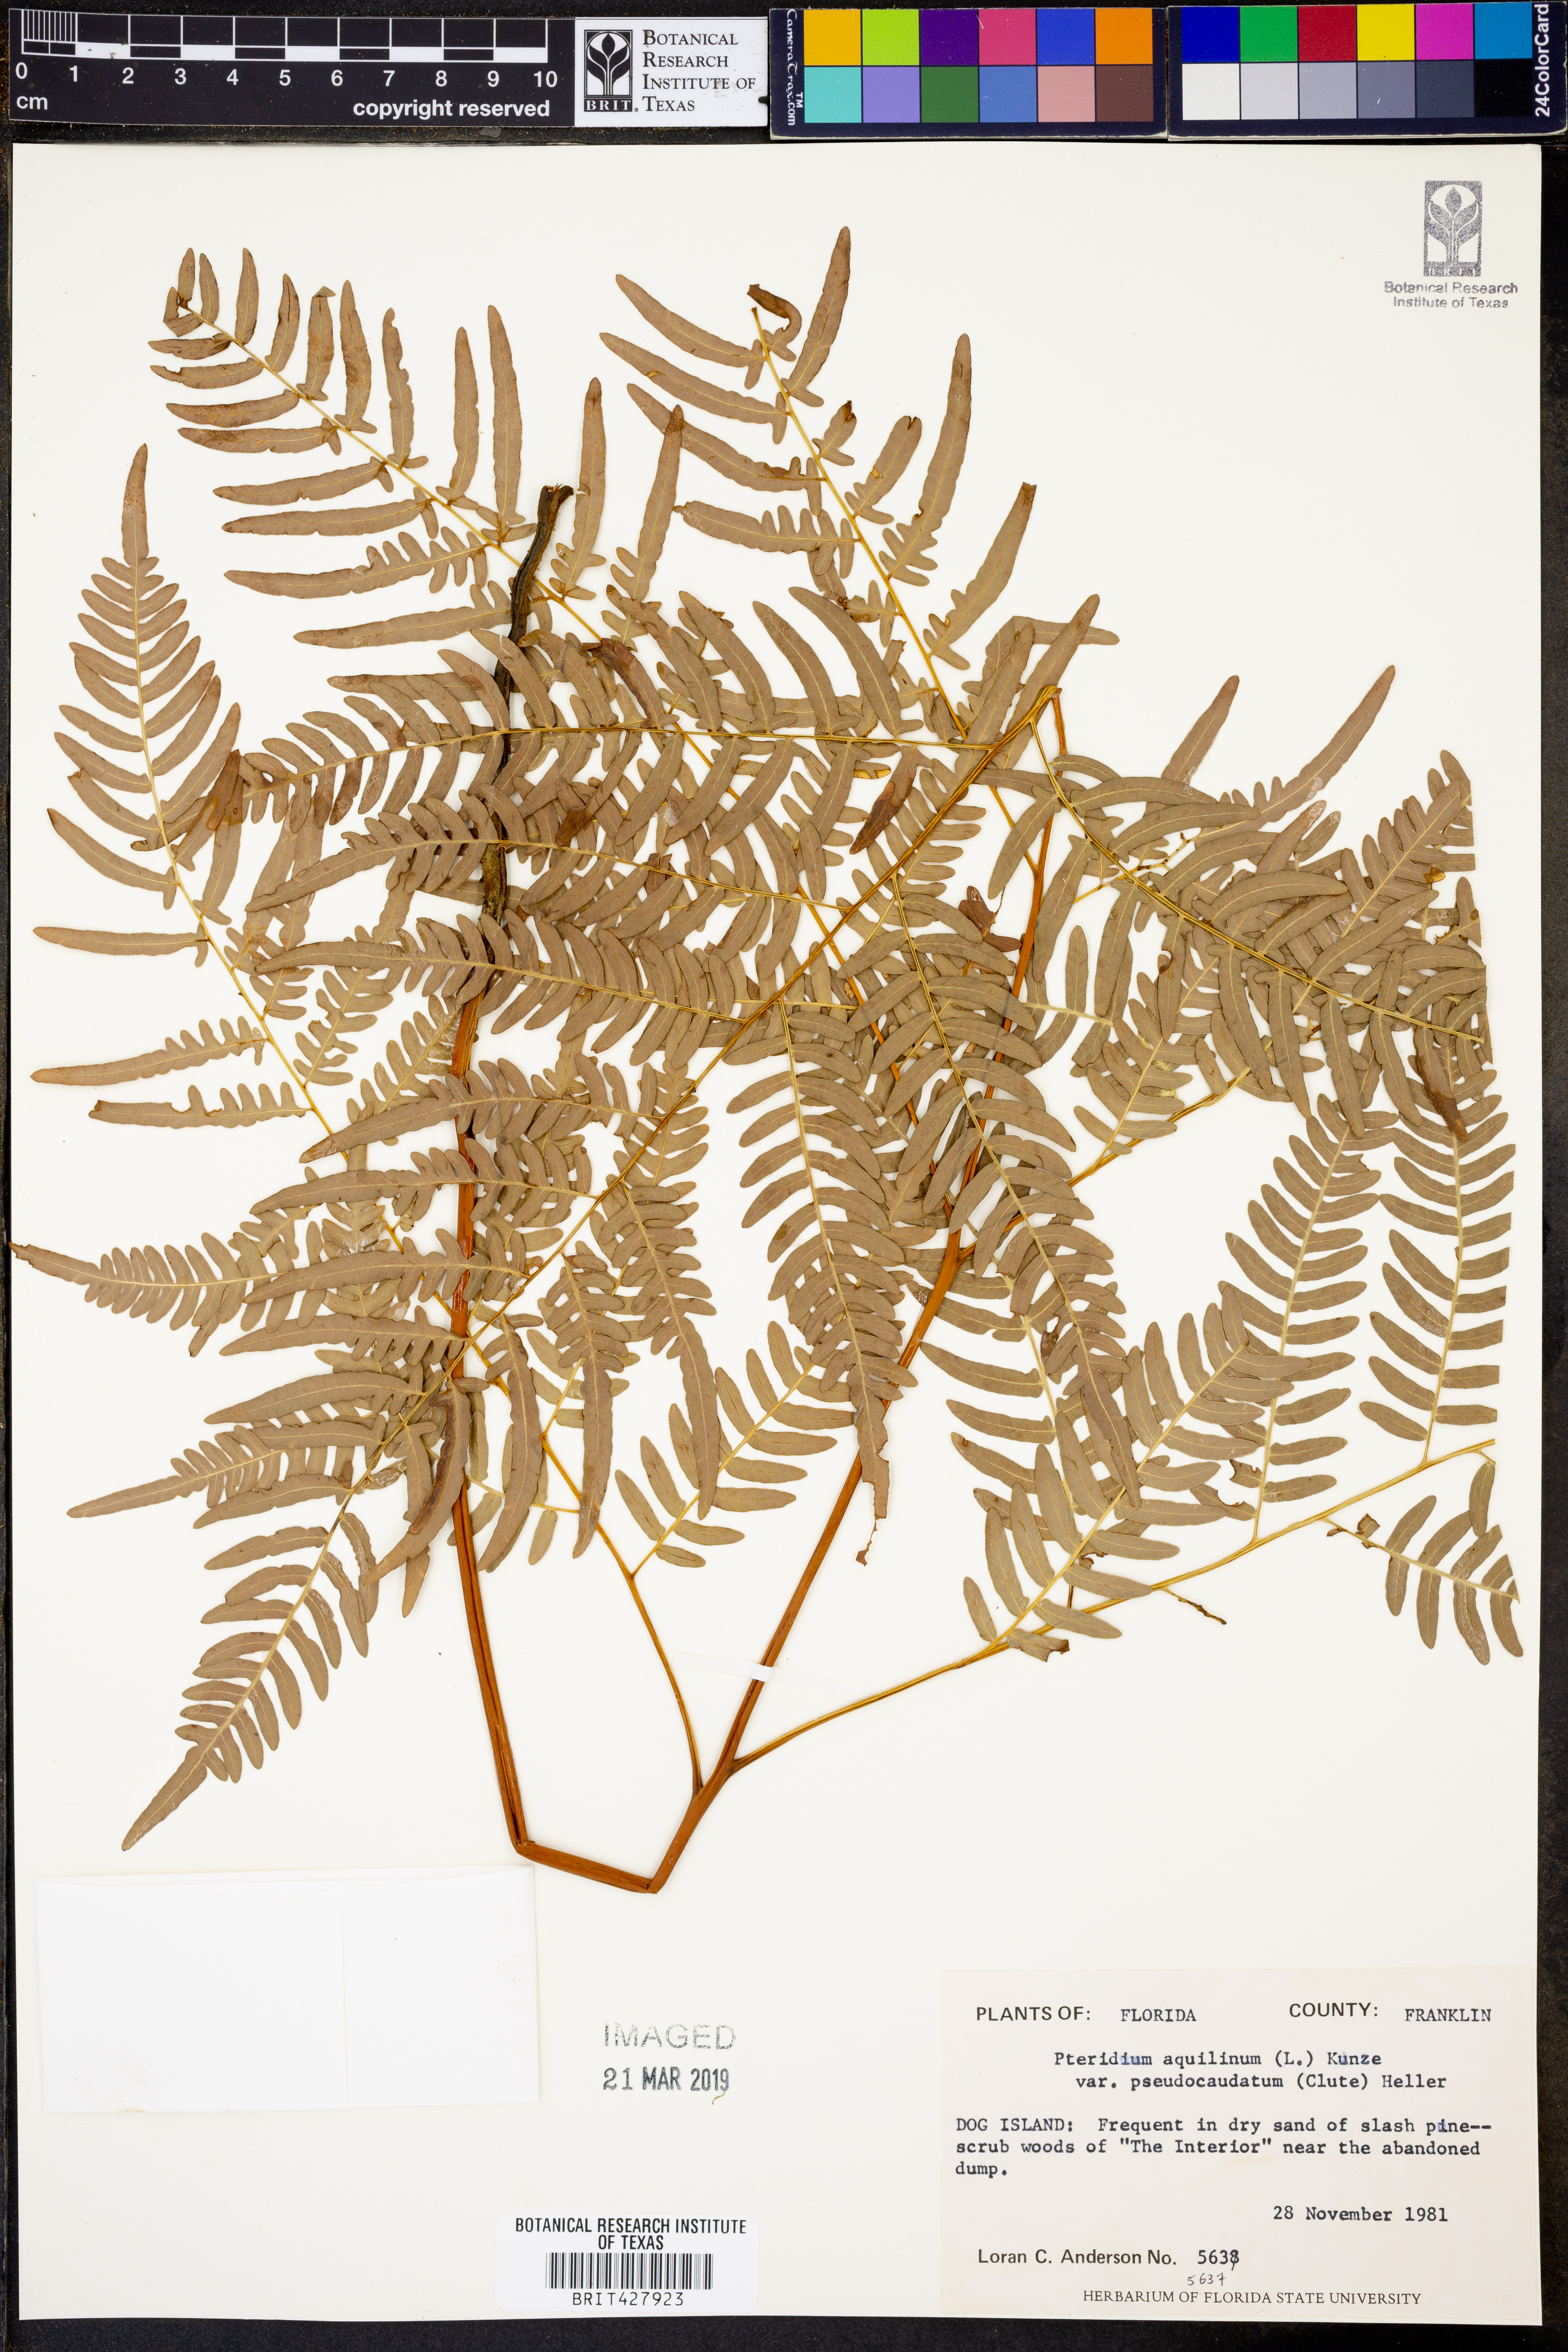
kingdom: Plantae
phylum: Tracheophyta
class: Polypodiopsida
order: Polypodiales
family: Dennstaedtiaceae
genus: Pteridium
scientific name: Pteridium aquilinum
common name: Bracken
